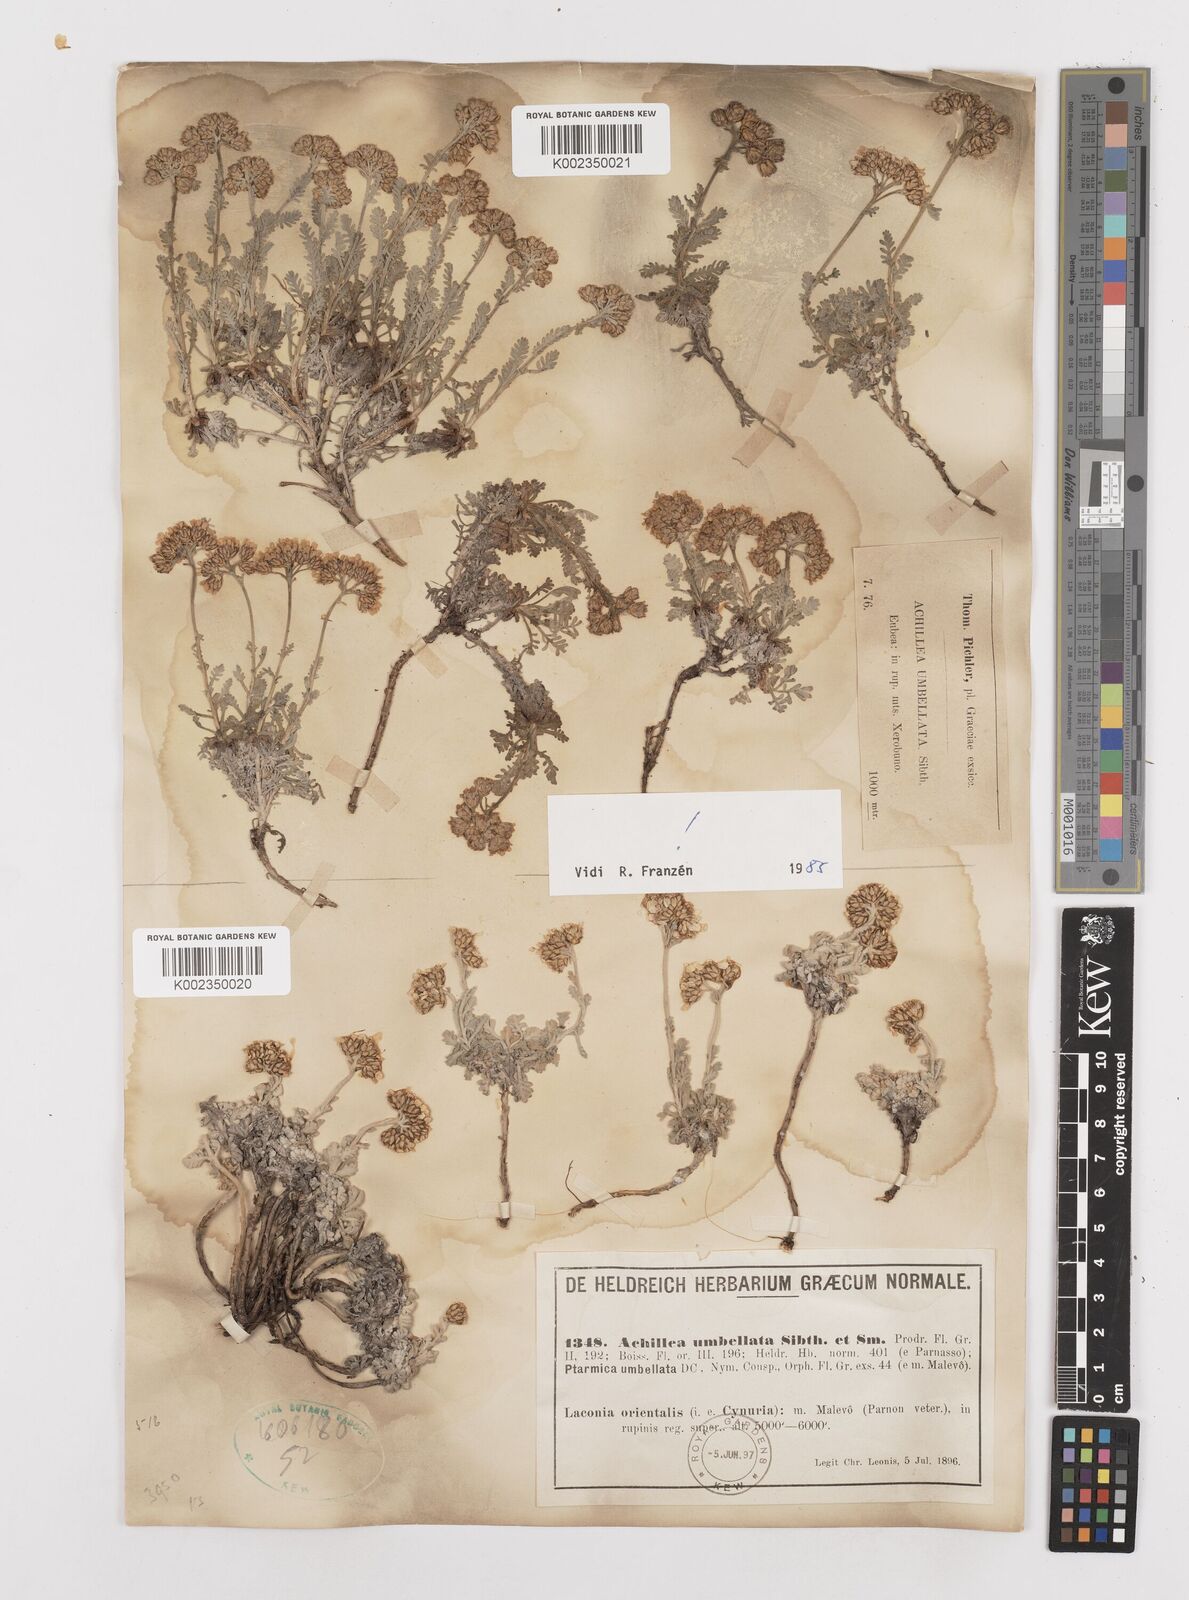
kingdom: Plantae
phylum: Tracheophyta
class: Magnoliopsida
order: Asterales
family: Asteraceae
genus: Achillea
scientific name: Achillea umbellata
